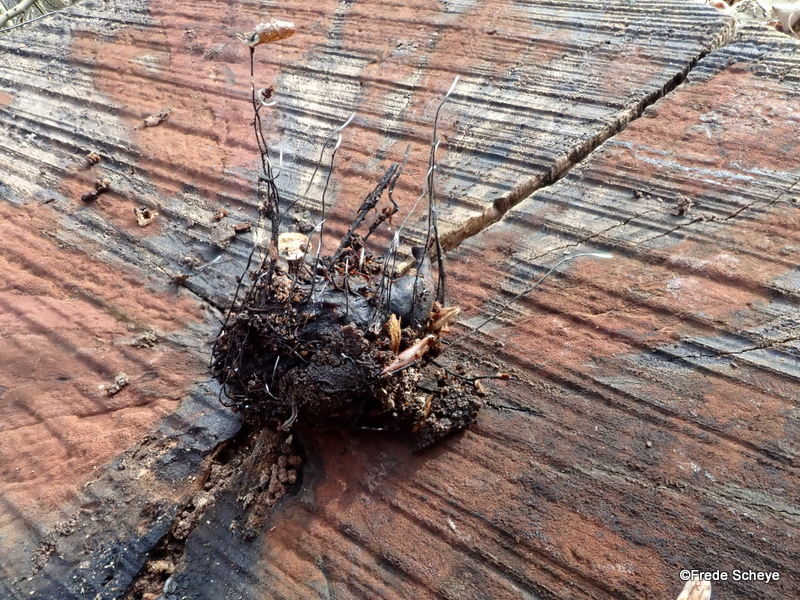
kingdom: Fungi
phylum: Ascomycota
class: Sordariomycetes
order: Xylariales
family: Xylariaceae
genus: Xylaria
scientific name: Xylaria carpophila
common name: bogskål-stødsvamp
